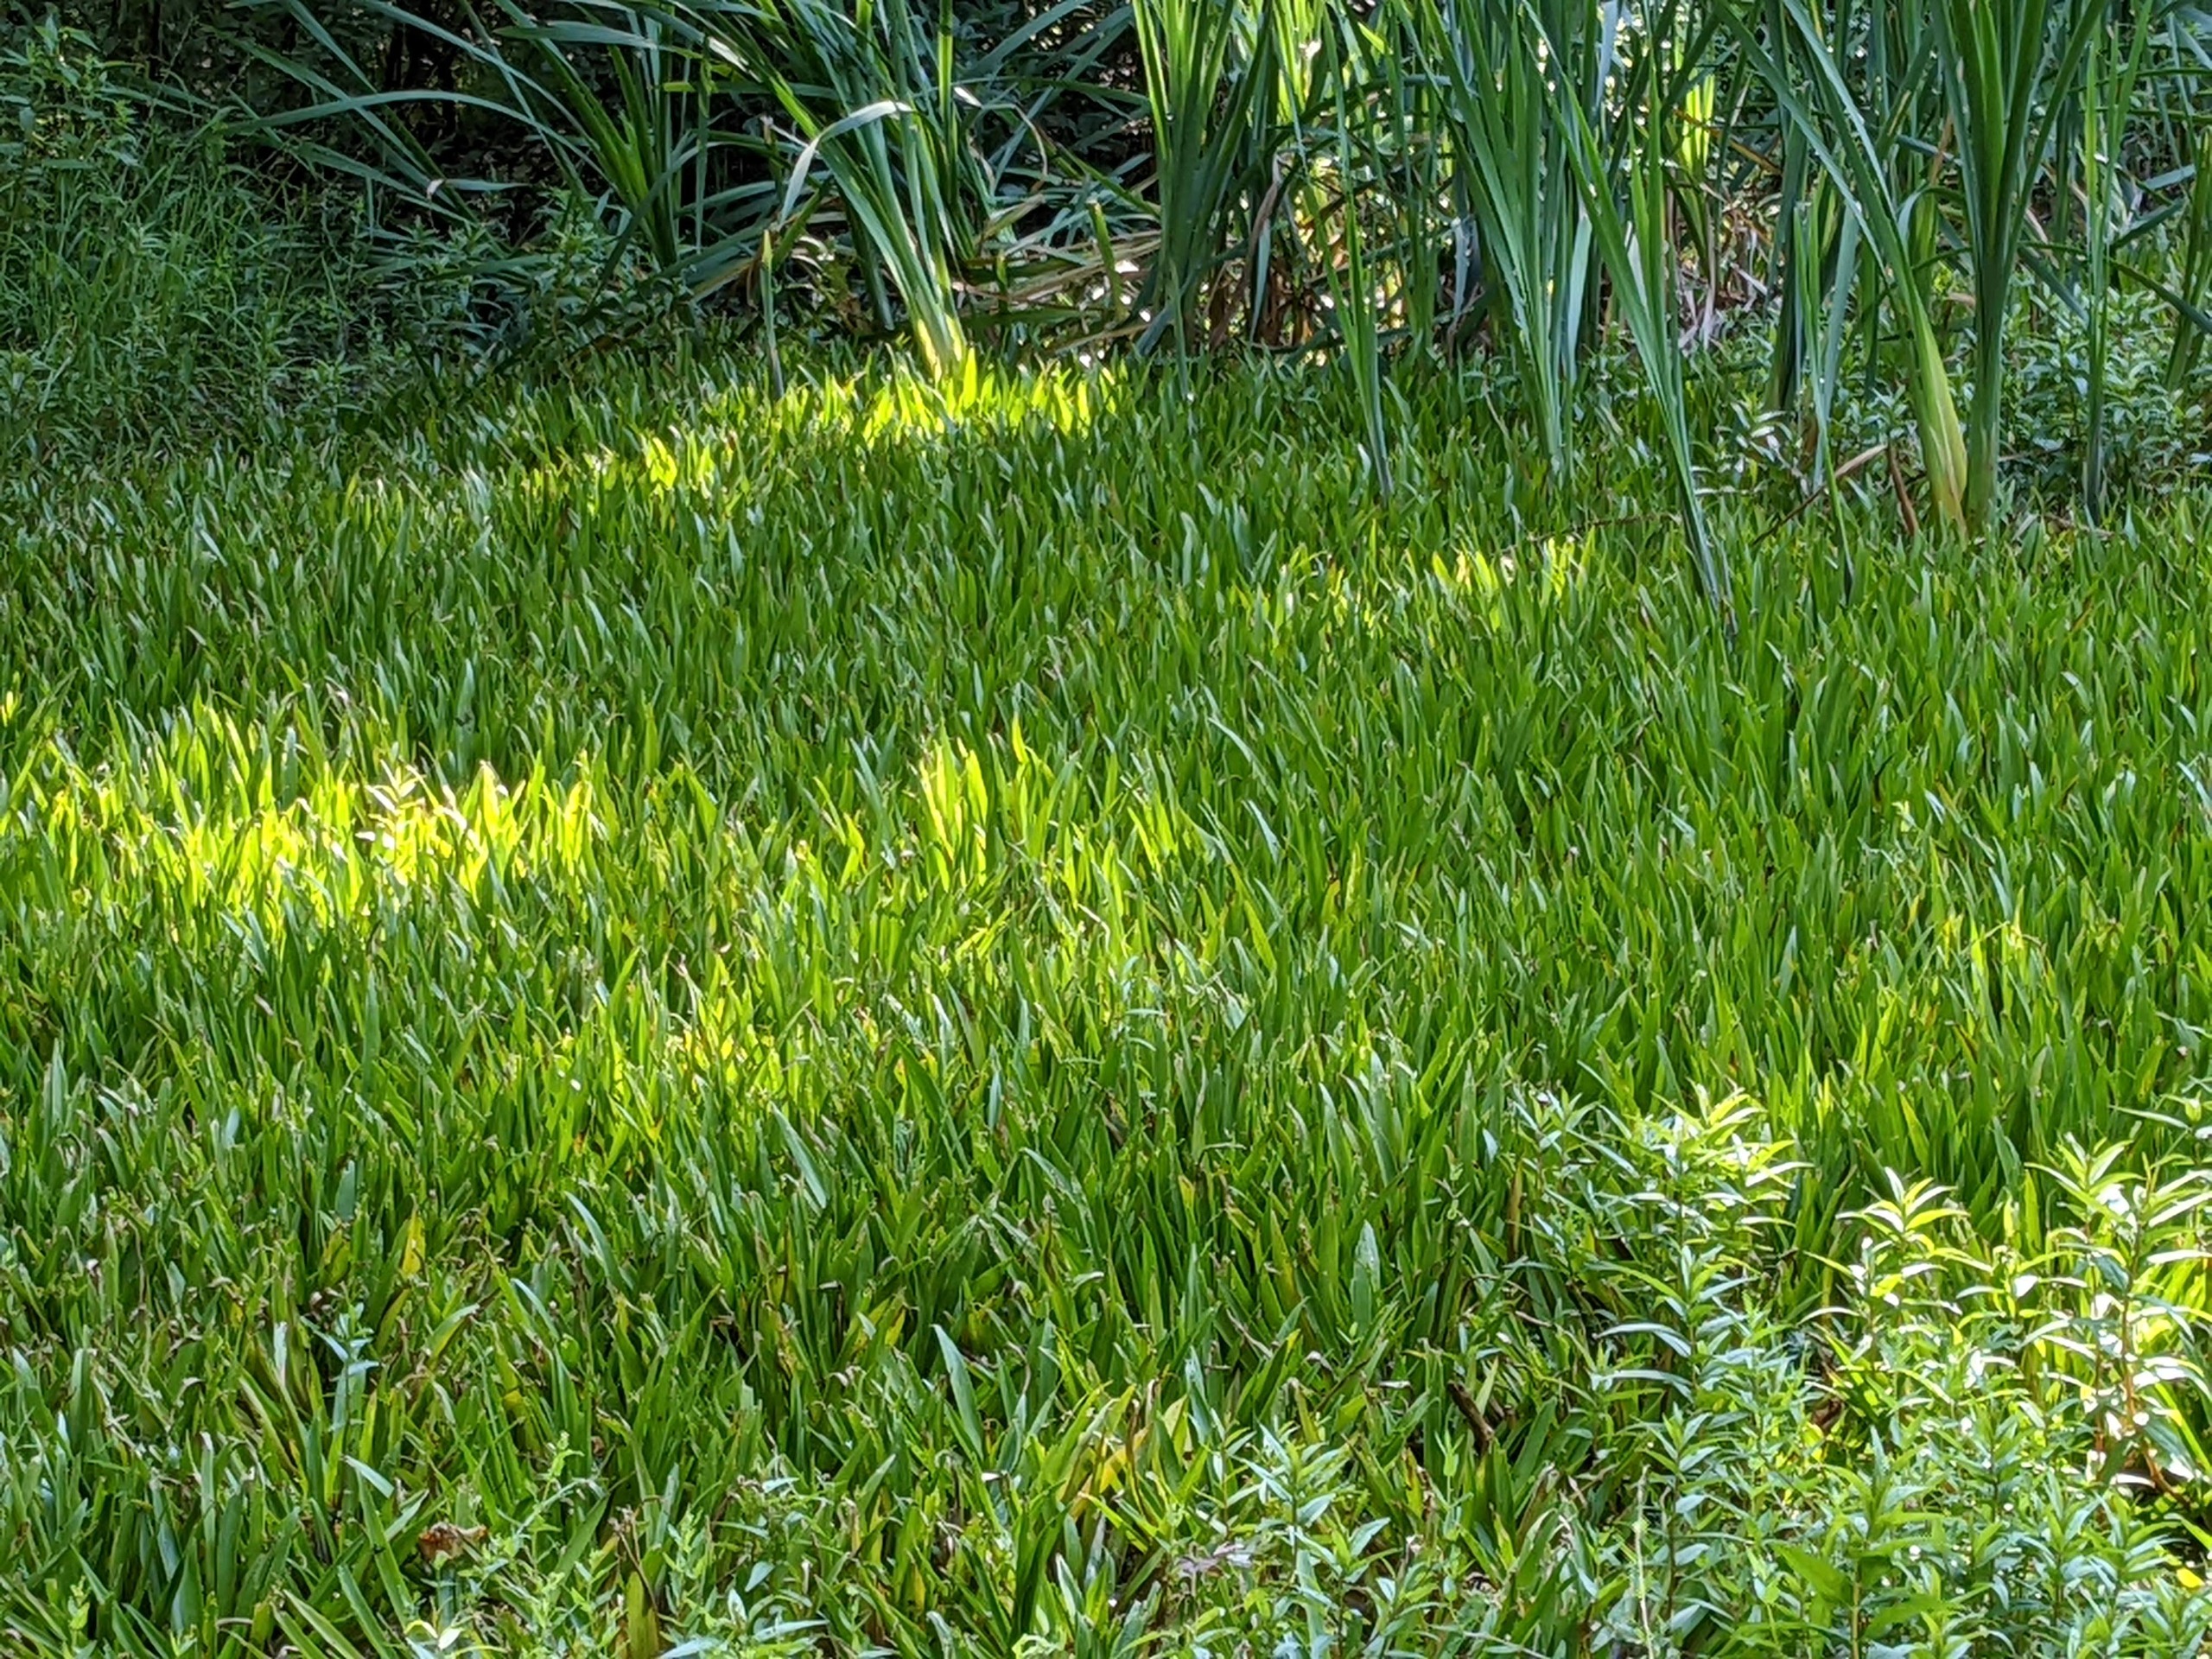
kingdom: Plantae
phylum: Tracheophyta
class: Liliopsida
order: Alismatales
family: Hydrocharitaceae
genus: Stratiotes
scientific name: Stratiotes aloides
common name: Krebseklo
